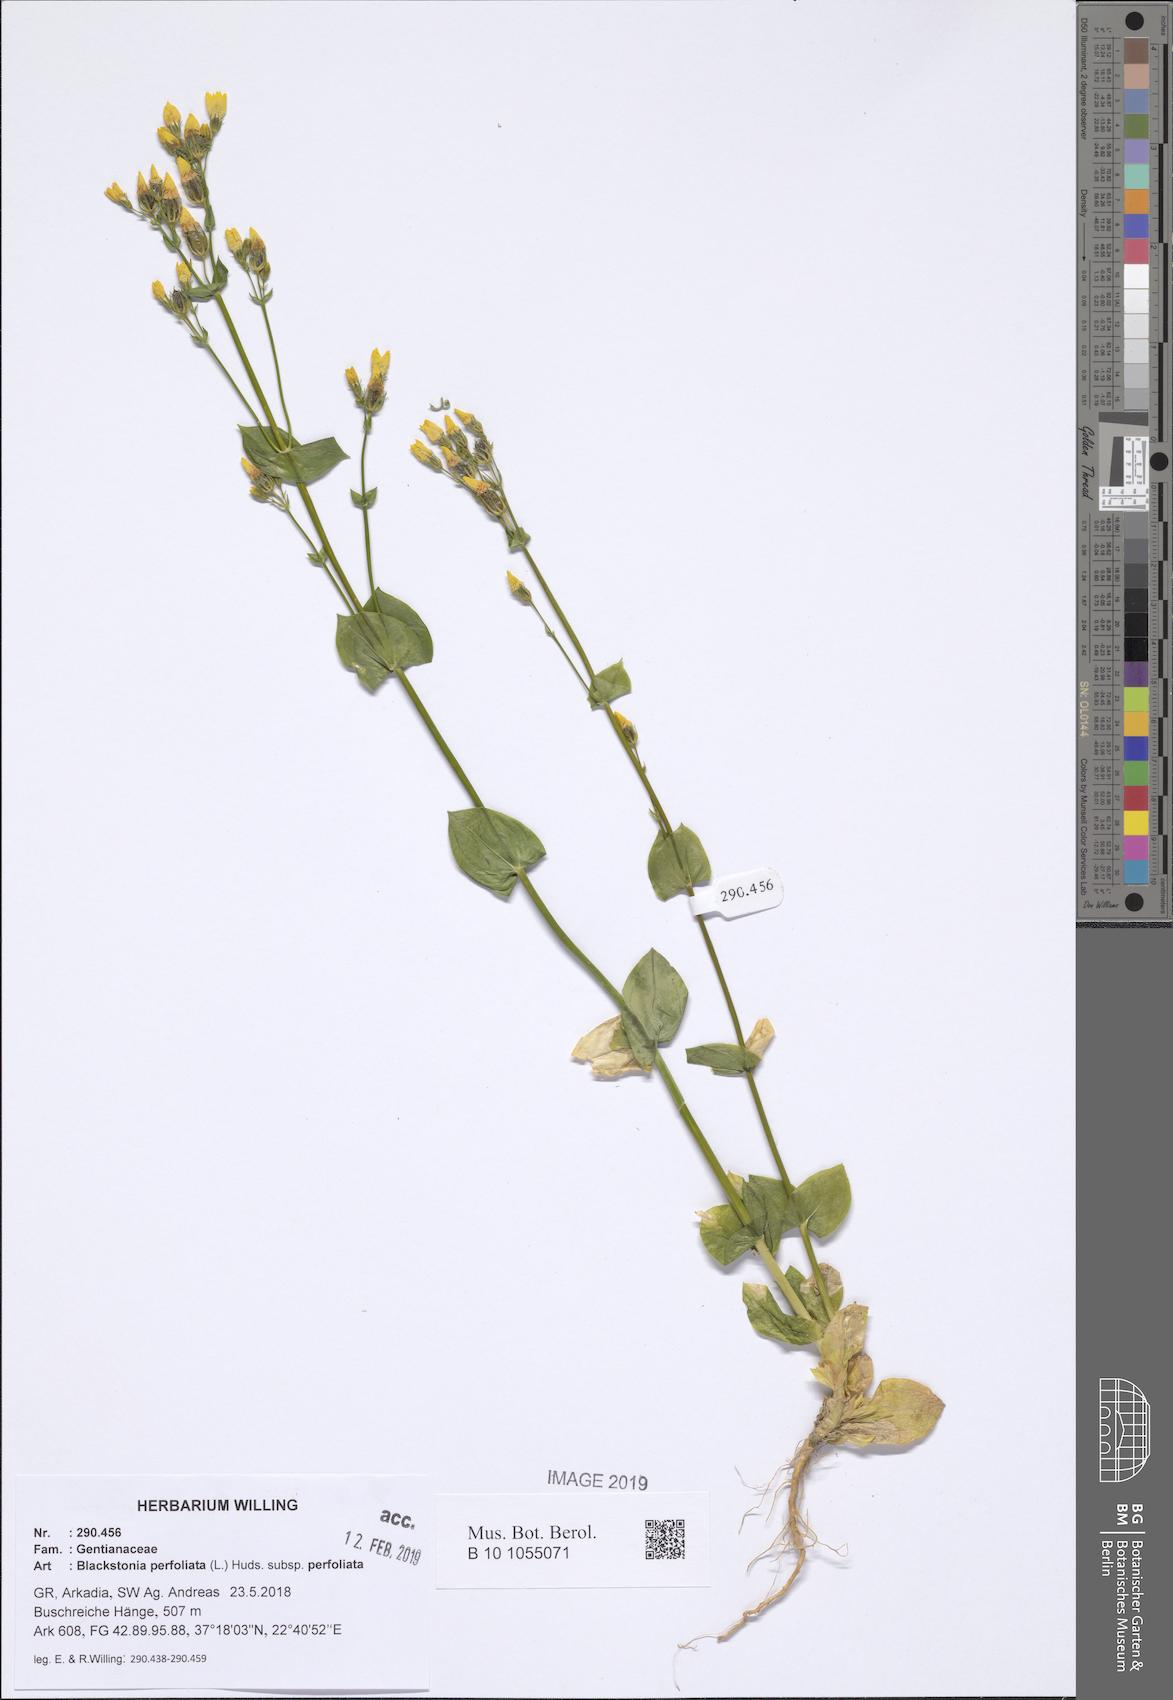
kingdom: Plantae
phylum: Tracheophyta
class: Magnoliopsida
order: Gentianales
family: Gentianaceae
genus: Blackstonia
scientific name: Blackstonia perfoliata
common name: Yellow-wort
